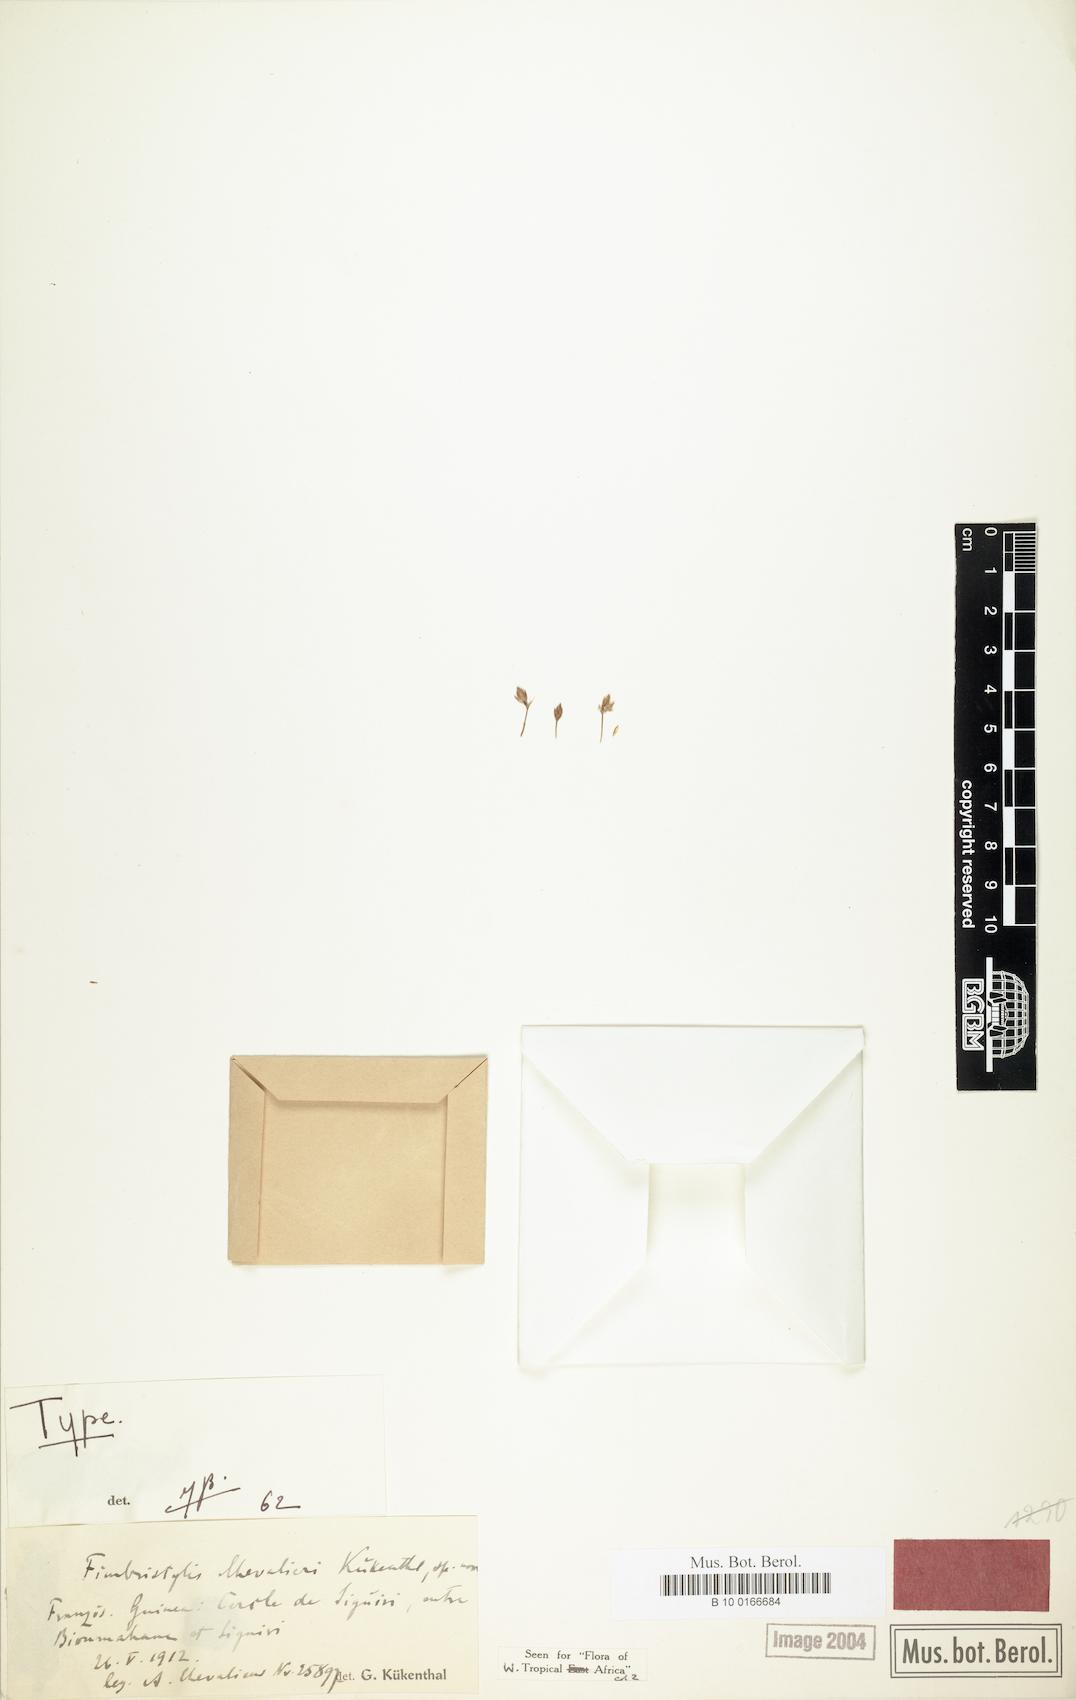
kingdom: Plantae
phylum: Tracheophyta
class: Liliopsida
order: Poales
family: Cyperaceae
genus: Fimbristylis
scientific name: Fimbristylis barteri
